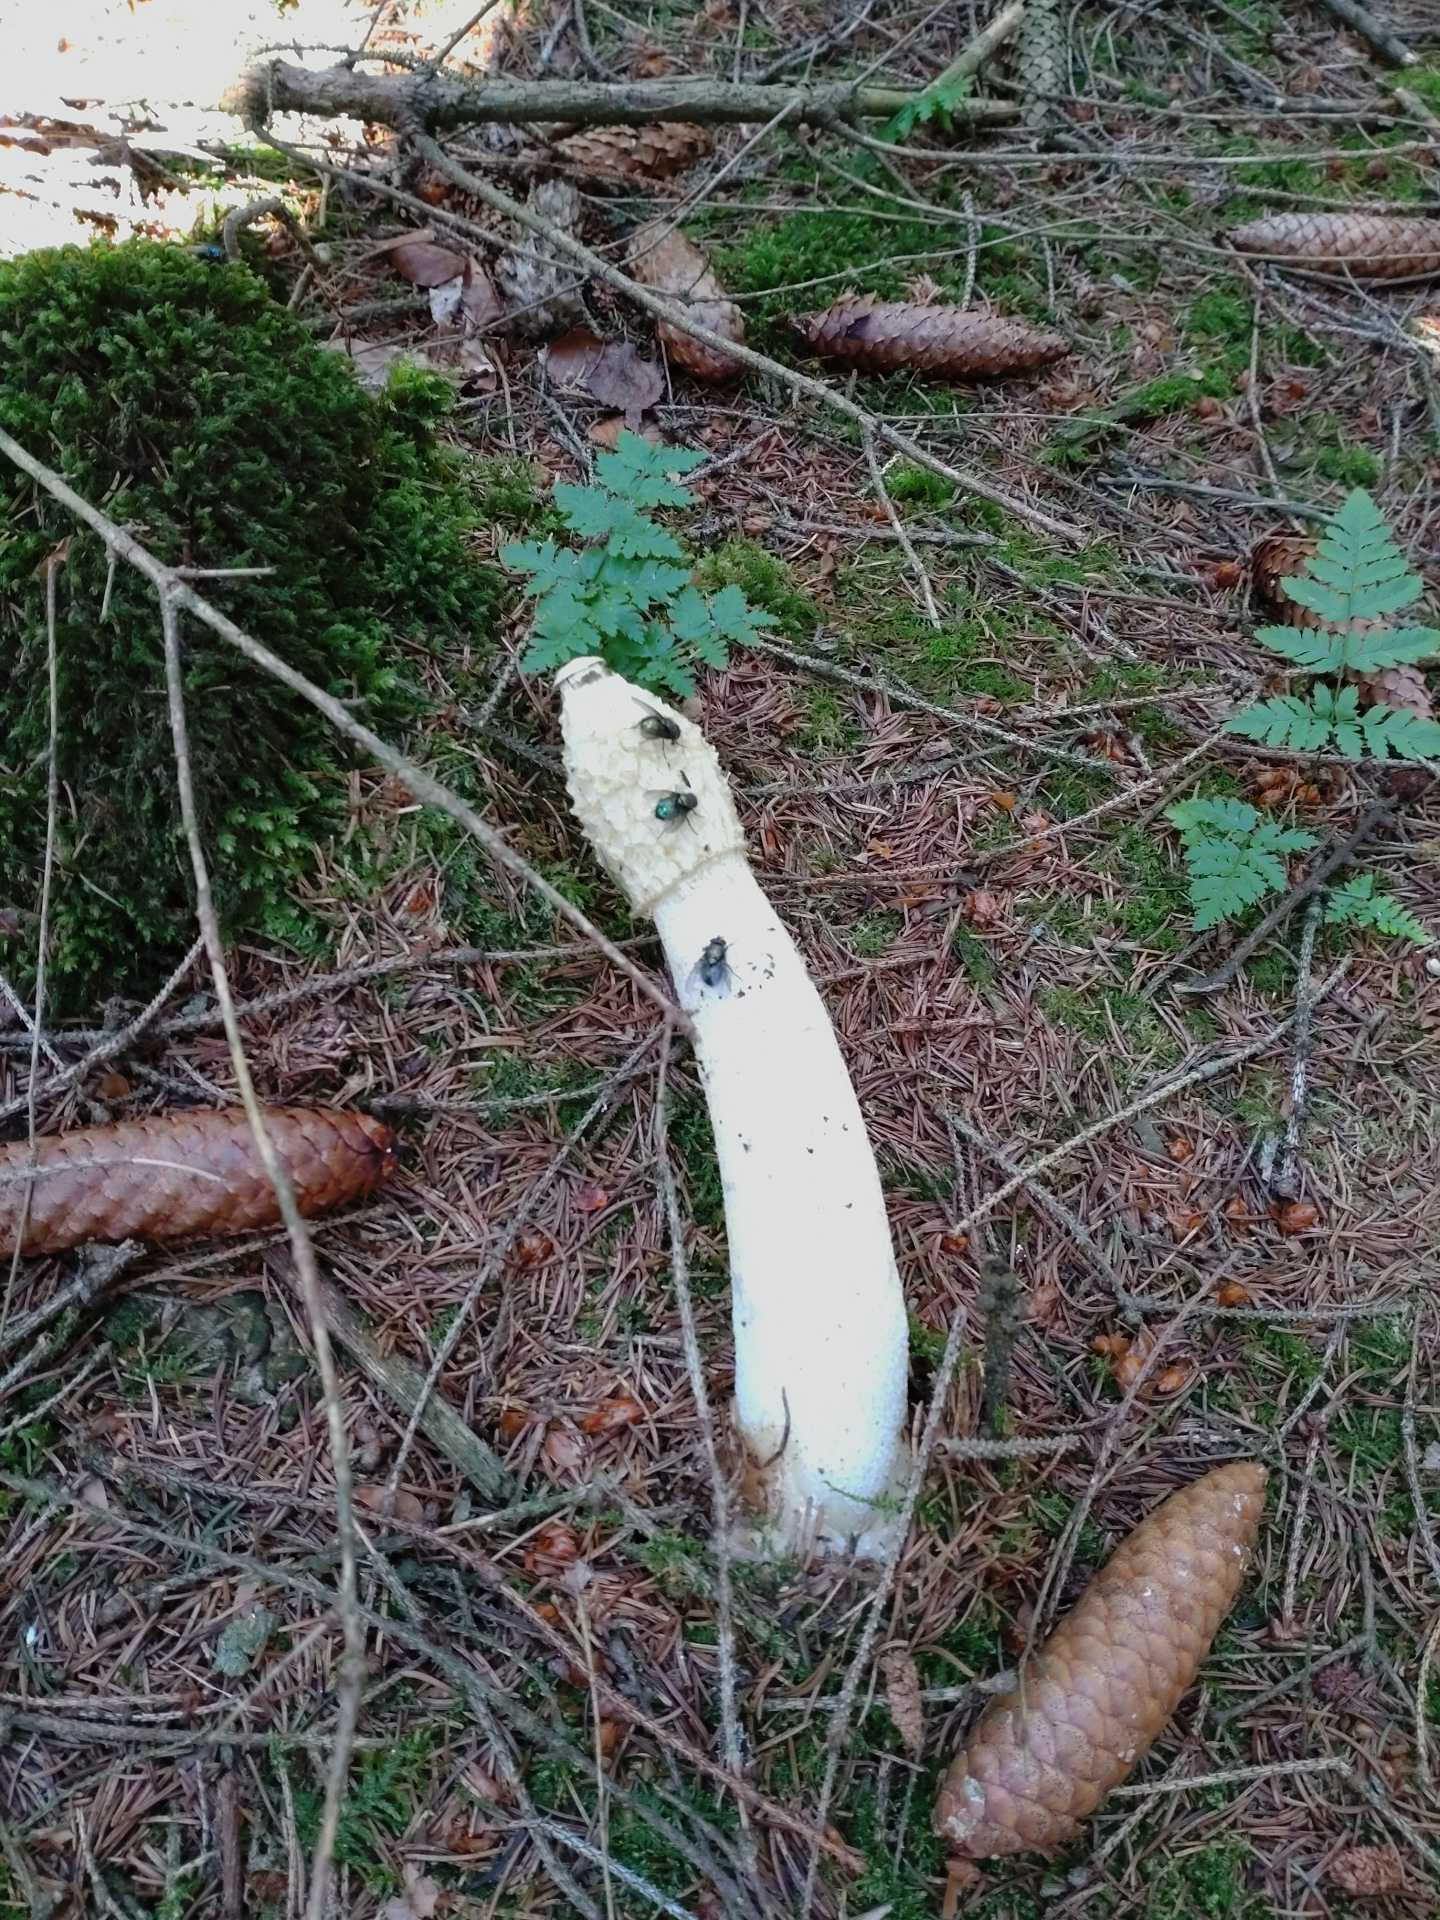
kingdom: Fungi
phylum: Basidiomycota
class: Agaricomycetes
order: Phallales
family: Phallaceae
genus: Phallus
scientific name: Phallus impudicus
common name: almindelig stinksvamp
